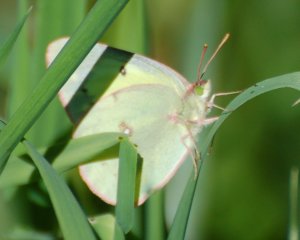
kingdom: Animalia
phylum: Arthropoda
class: Insecta
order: Lepidoptera
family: Pieridae
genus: Colias
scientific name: Colias eurytheme
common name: Orange Sulphur
